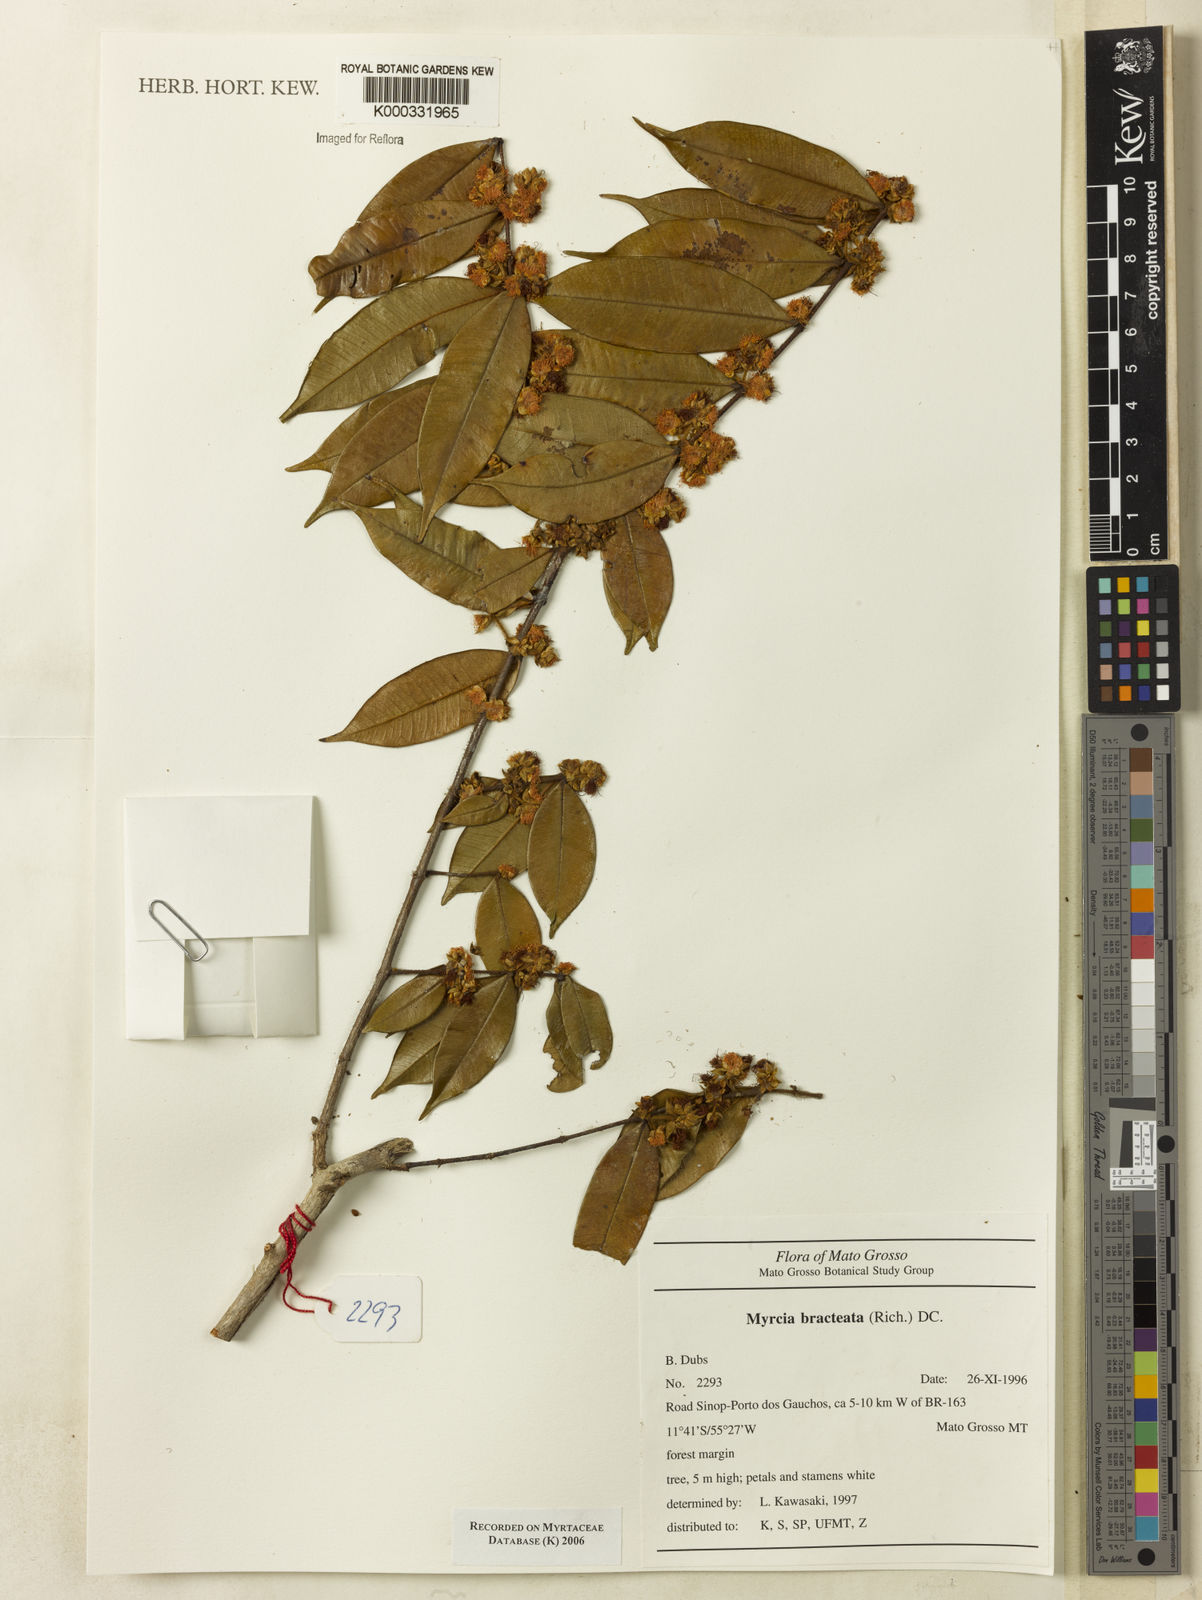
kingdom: Plantae
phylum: Tracheophyta
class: Magnoliopsida
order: Myrtales
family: Myrtaceae
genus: Myrcia
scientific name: Myrcia bracteata
